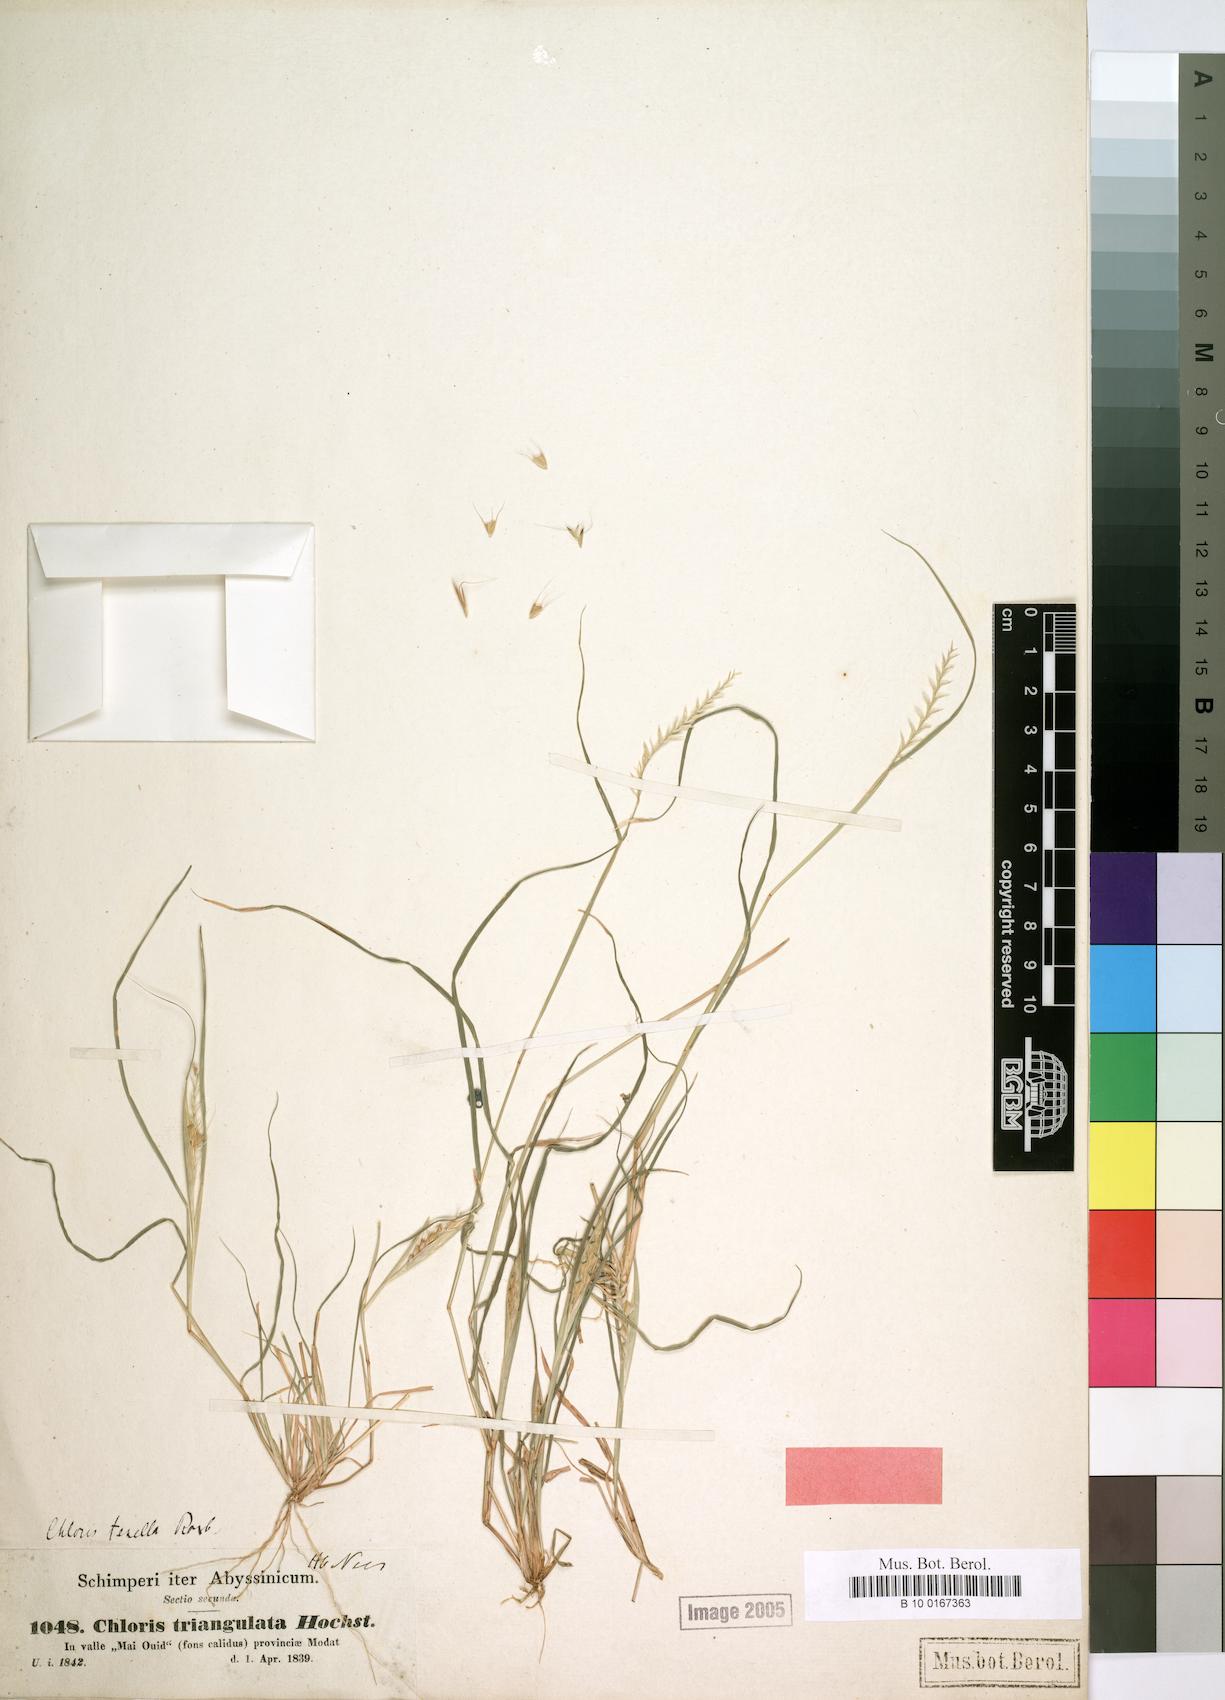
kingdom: Plantae
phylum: Tracheophyta
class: Liliopsida
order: Poales
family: Poaceae
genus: Tetrapogon
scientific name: Tetrapogon tenellus
